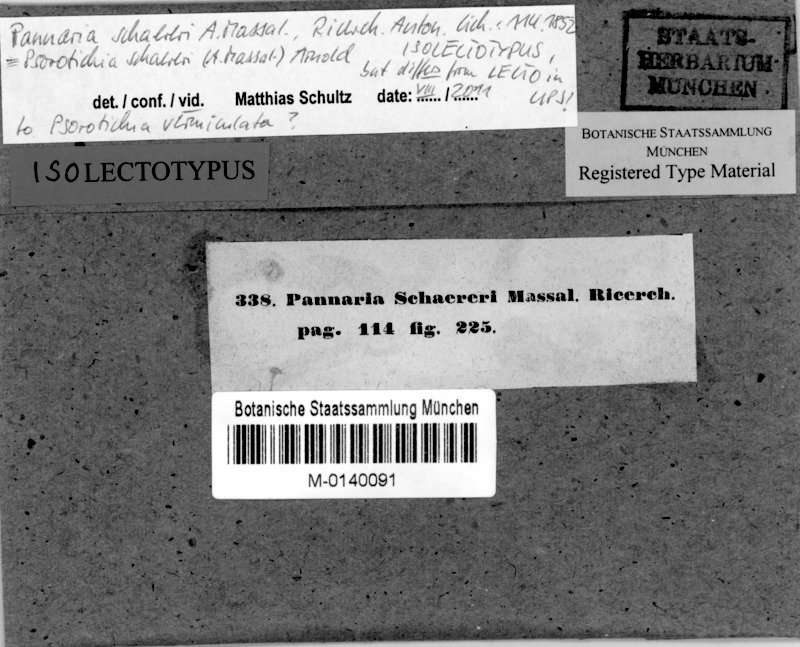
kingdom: Fungi
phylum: Ascomycota
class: Lichinomycetes
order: Lichinales
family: Lichinaceae
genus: Psorotichia
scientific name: Psorotichia schaereri
